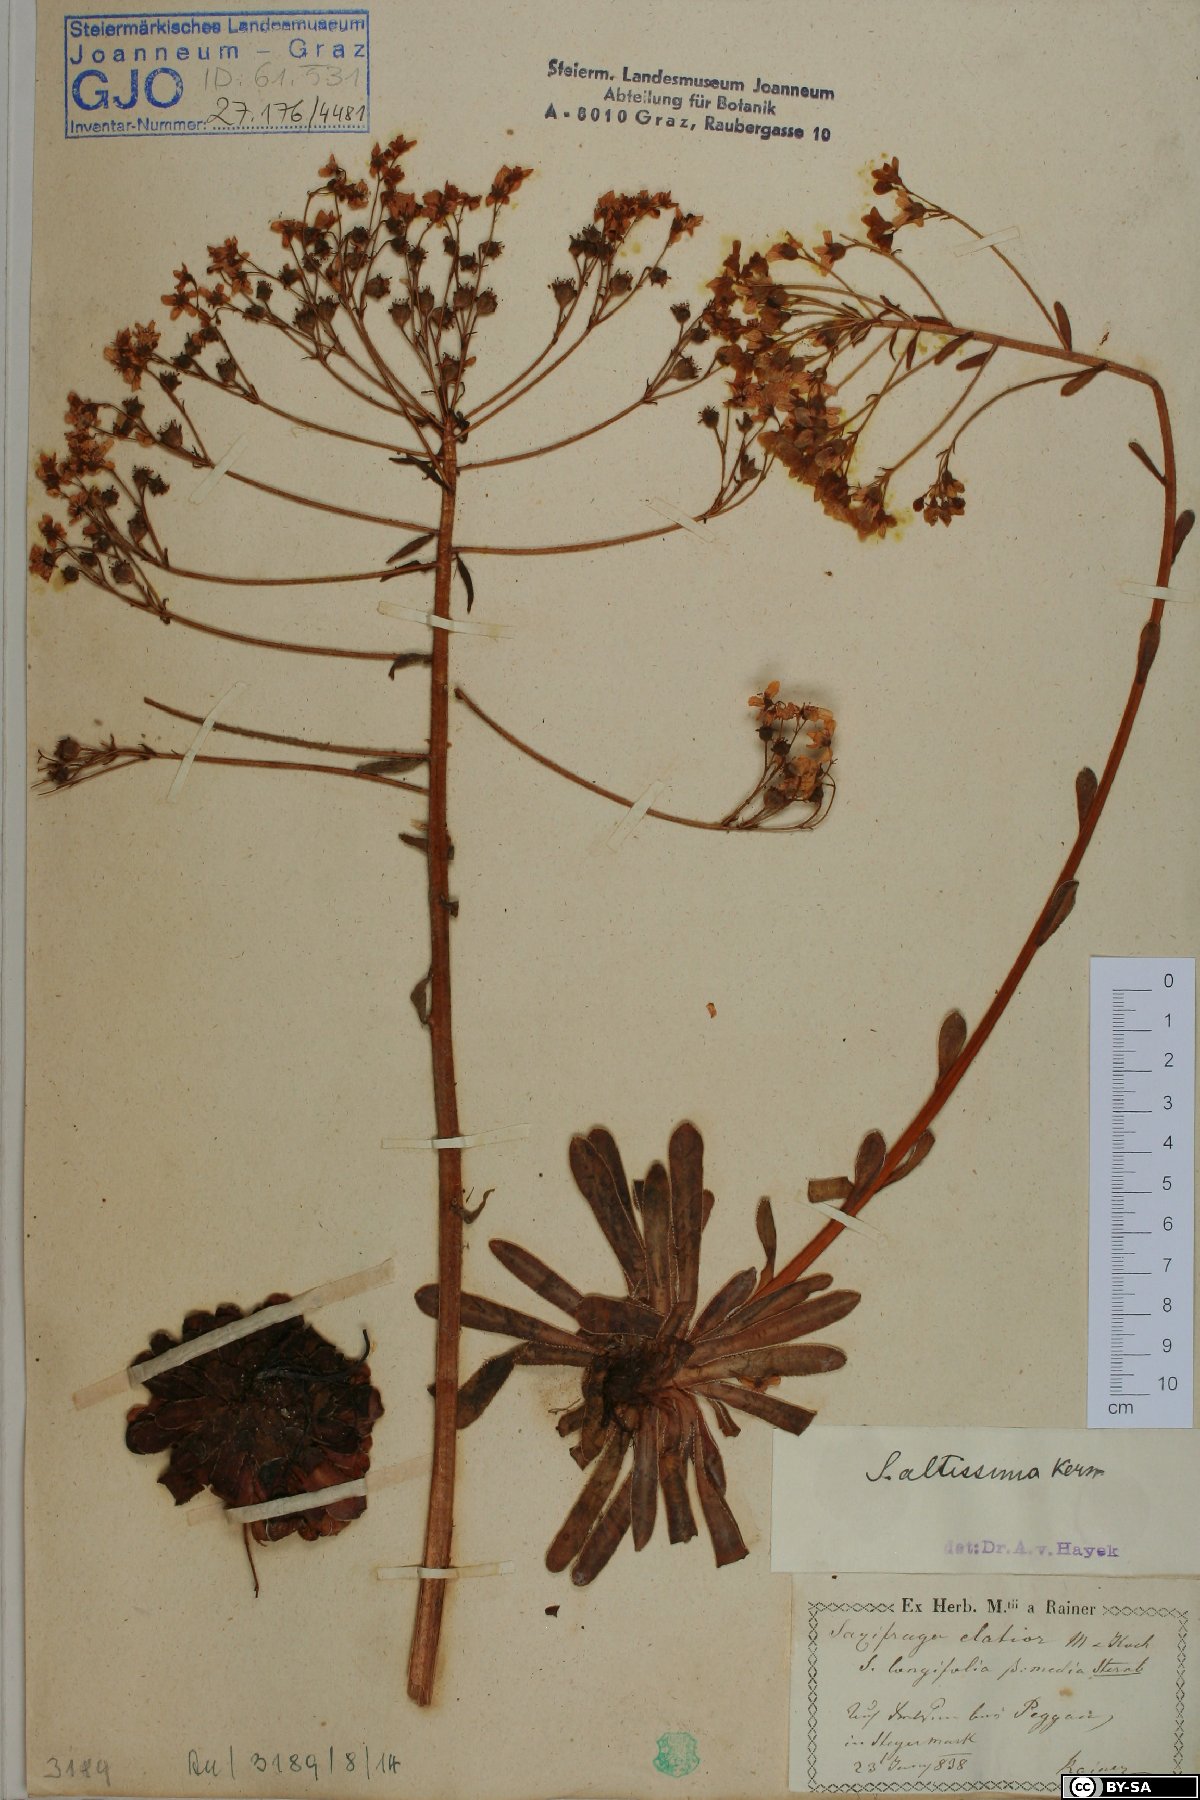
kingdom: Plantae
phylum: Tracheophyta
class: Magnoliopsida
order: Saxifragales
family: Saxifragaceae
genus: Saxifraga
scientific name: Saxifraga hostii
